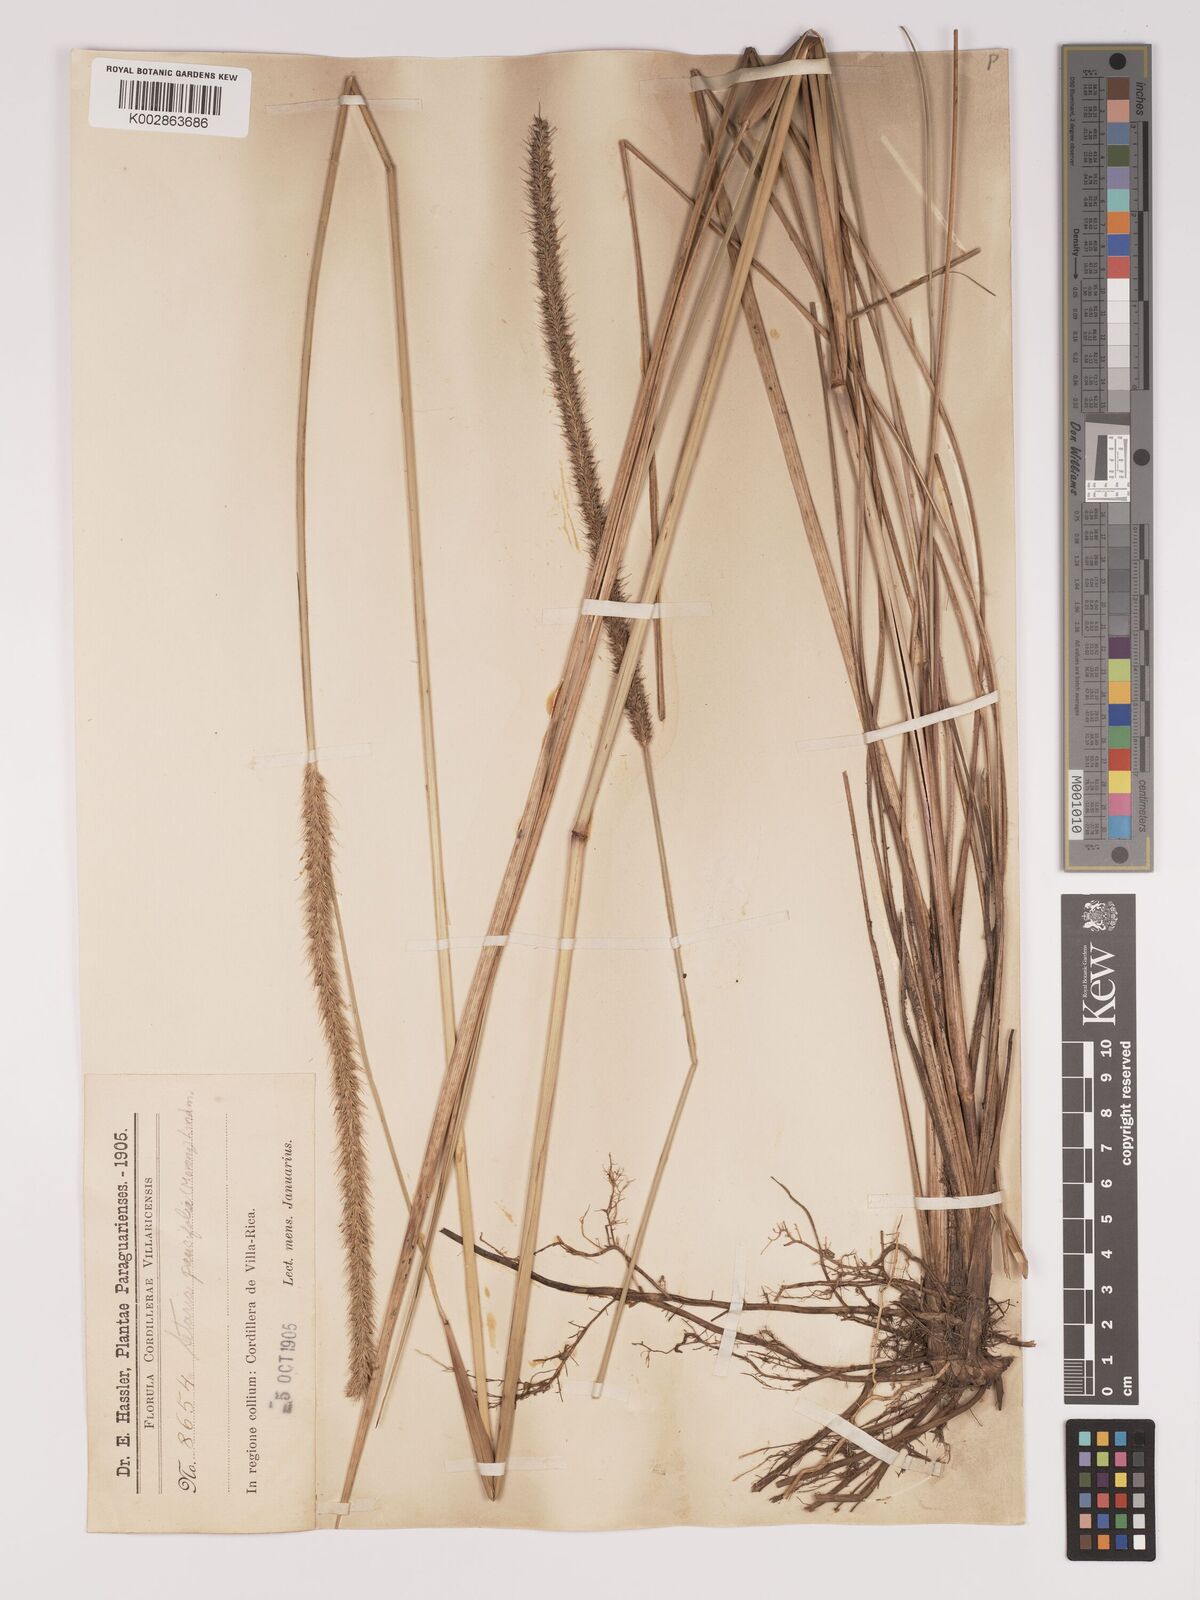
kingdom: Plantae
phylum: Tracheophyta
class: Liliopsida
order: Poales
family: Poaceae
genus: Setaria
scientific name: Setaria paucifolia
